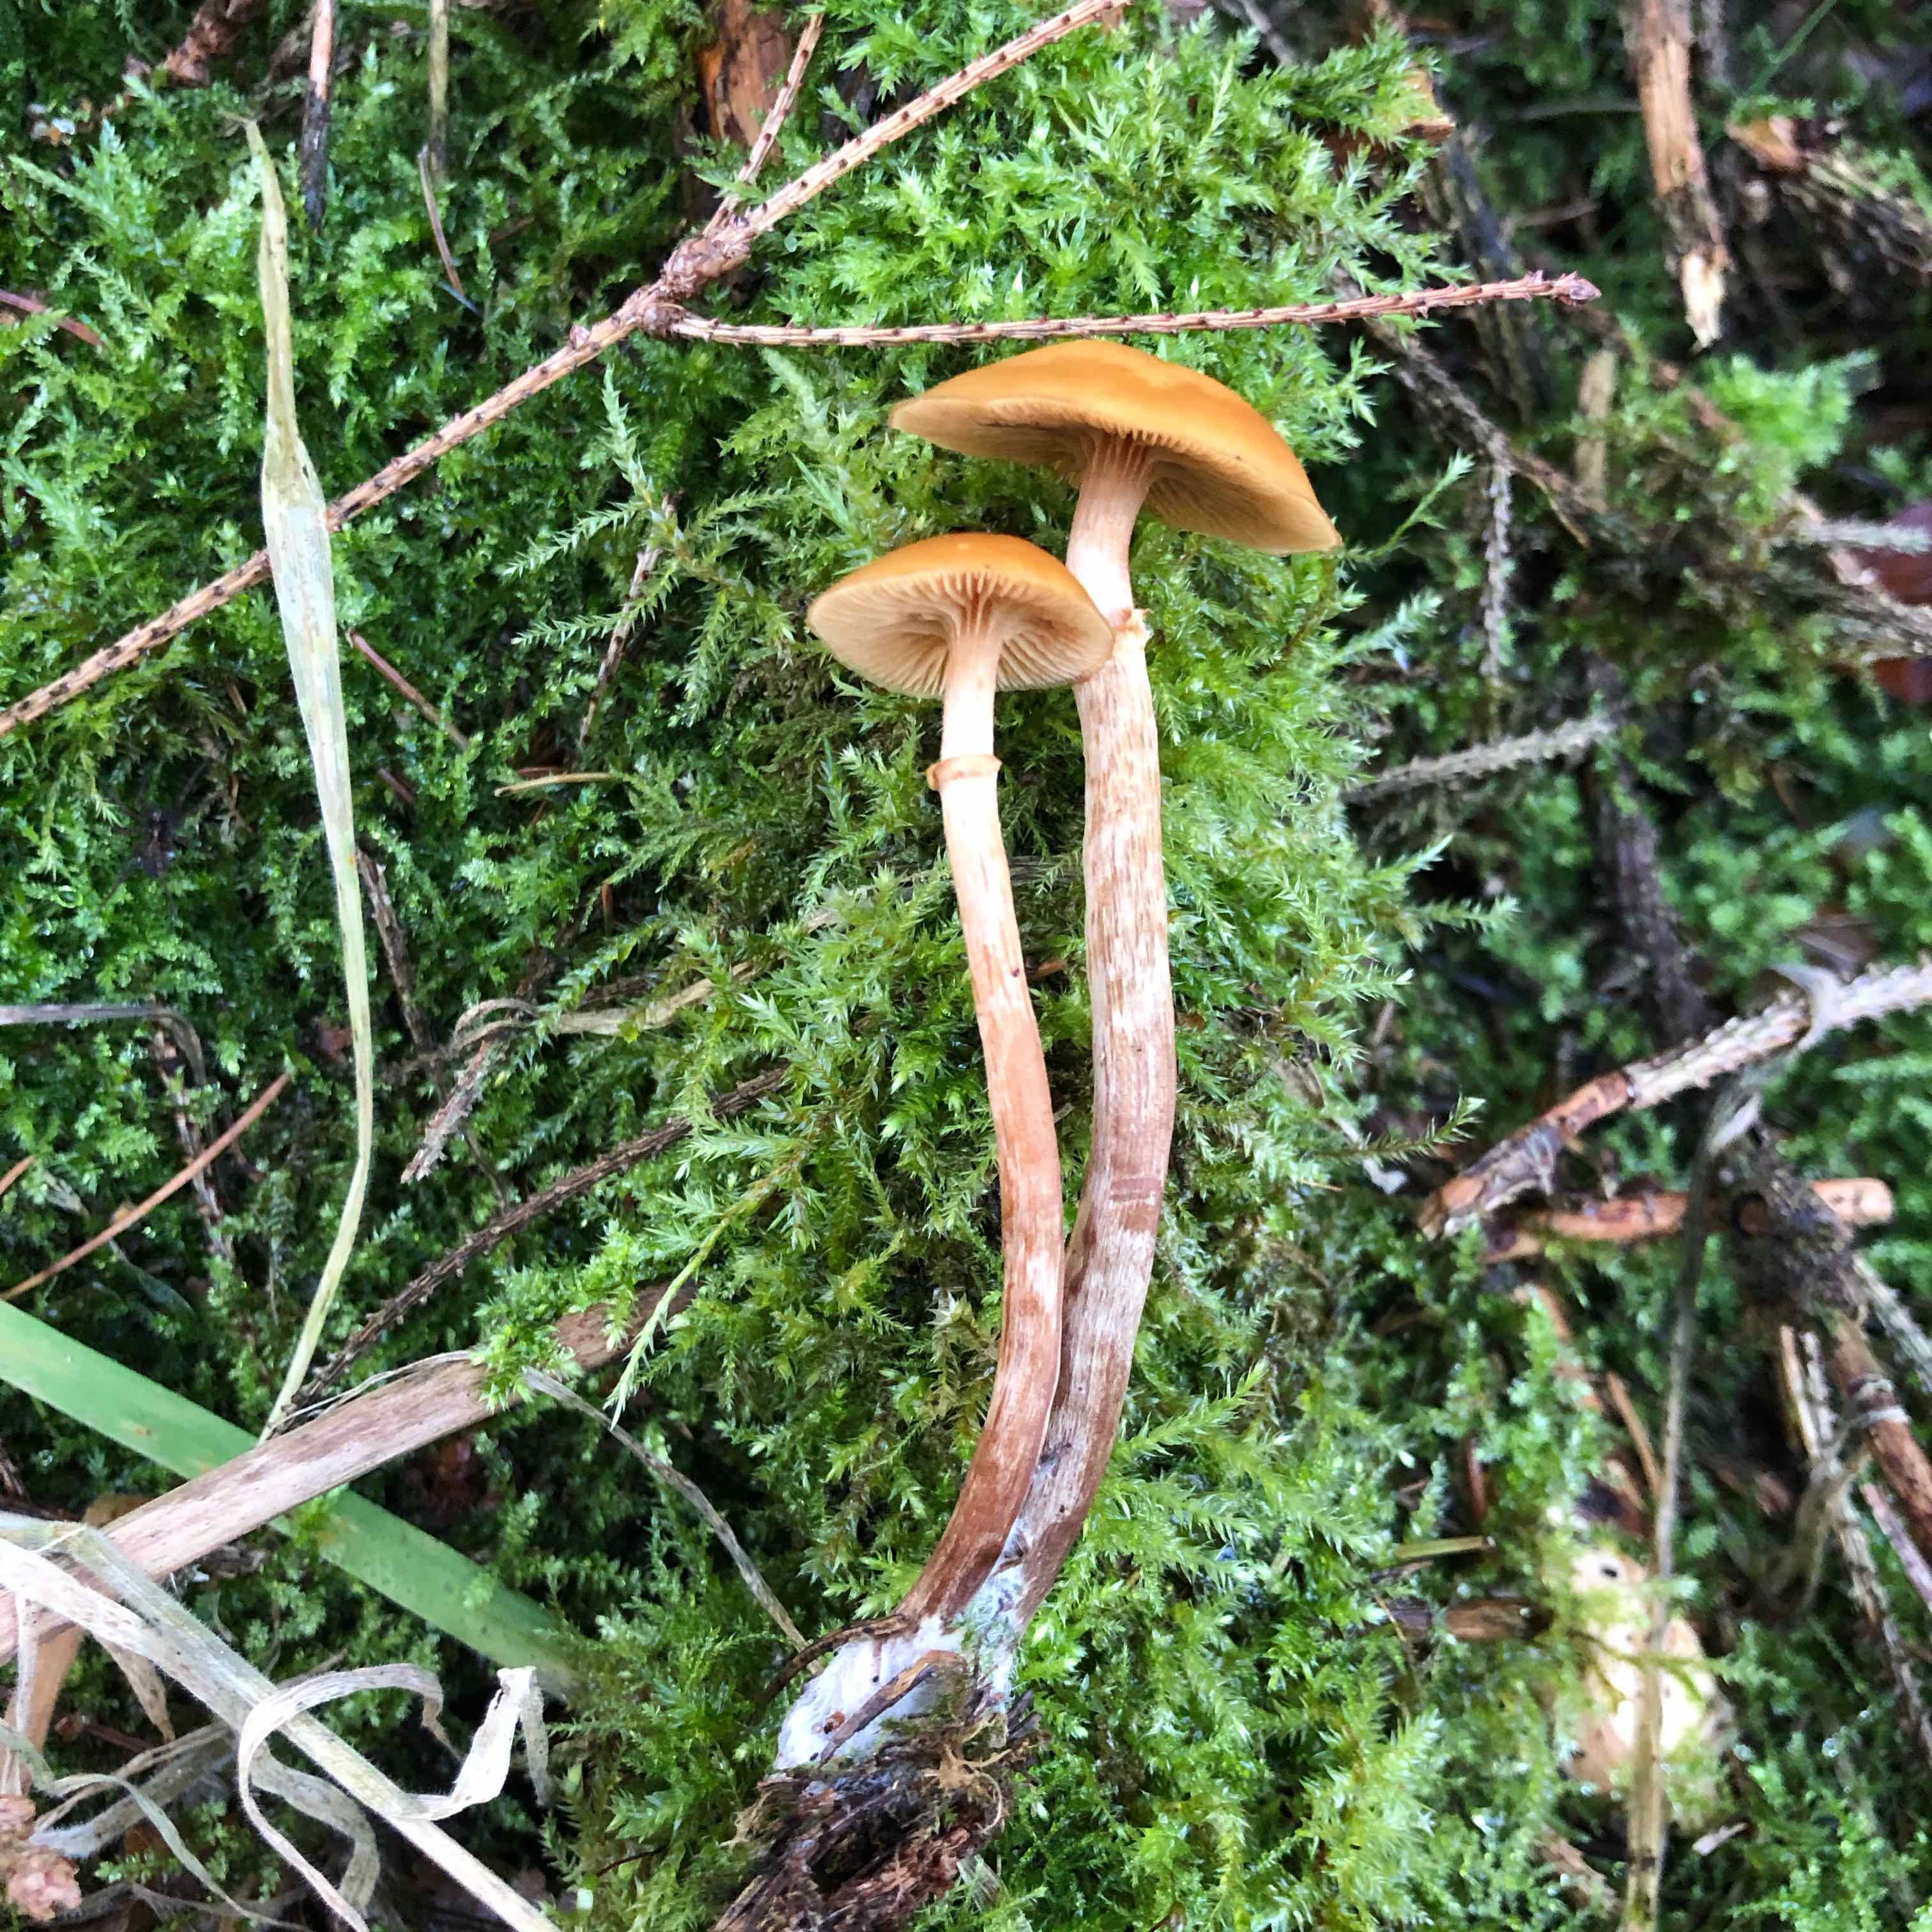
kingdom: Fungi
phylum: Basidiomycota
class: Agaricomycetes
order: Agaricales
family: Hymenogastraceae
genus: Galerina
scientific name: Galerina marginata
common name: randbæltet hjelmhat
